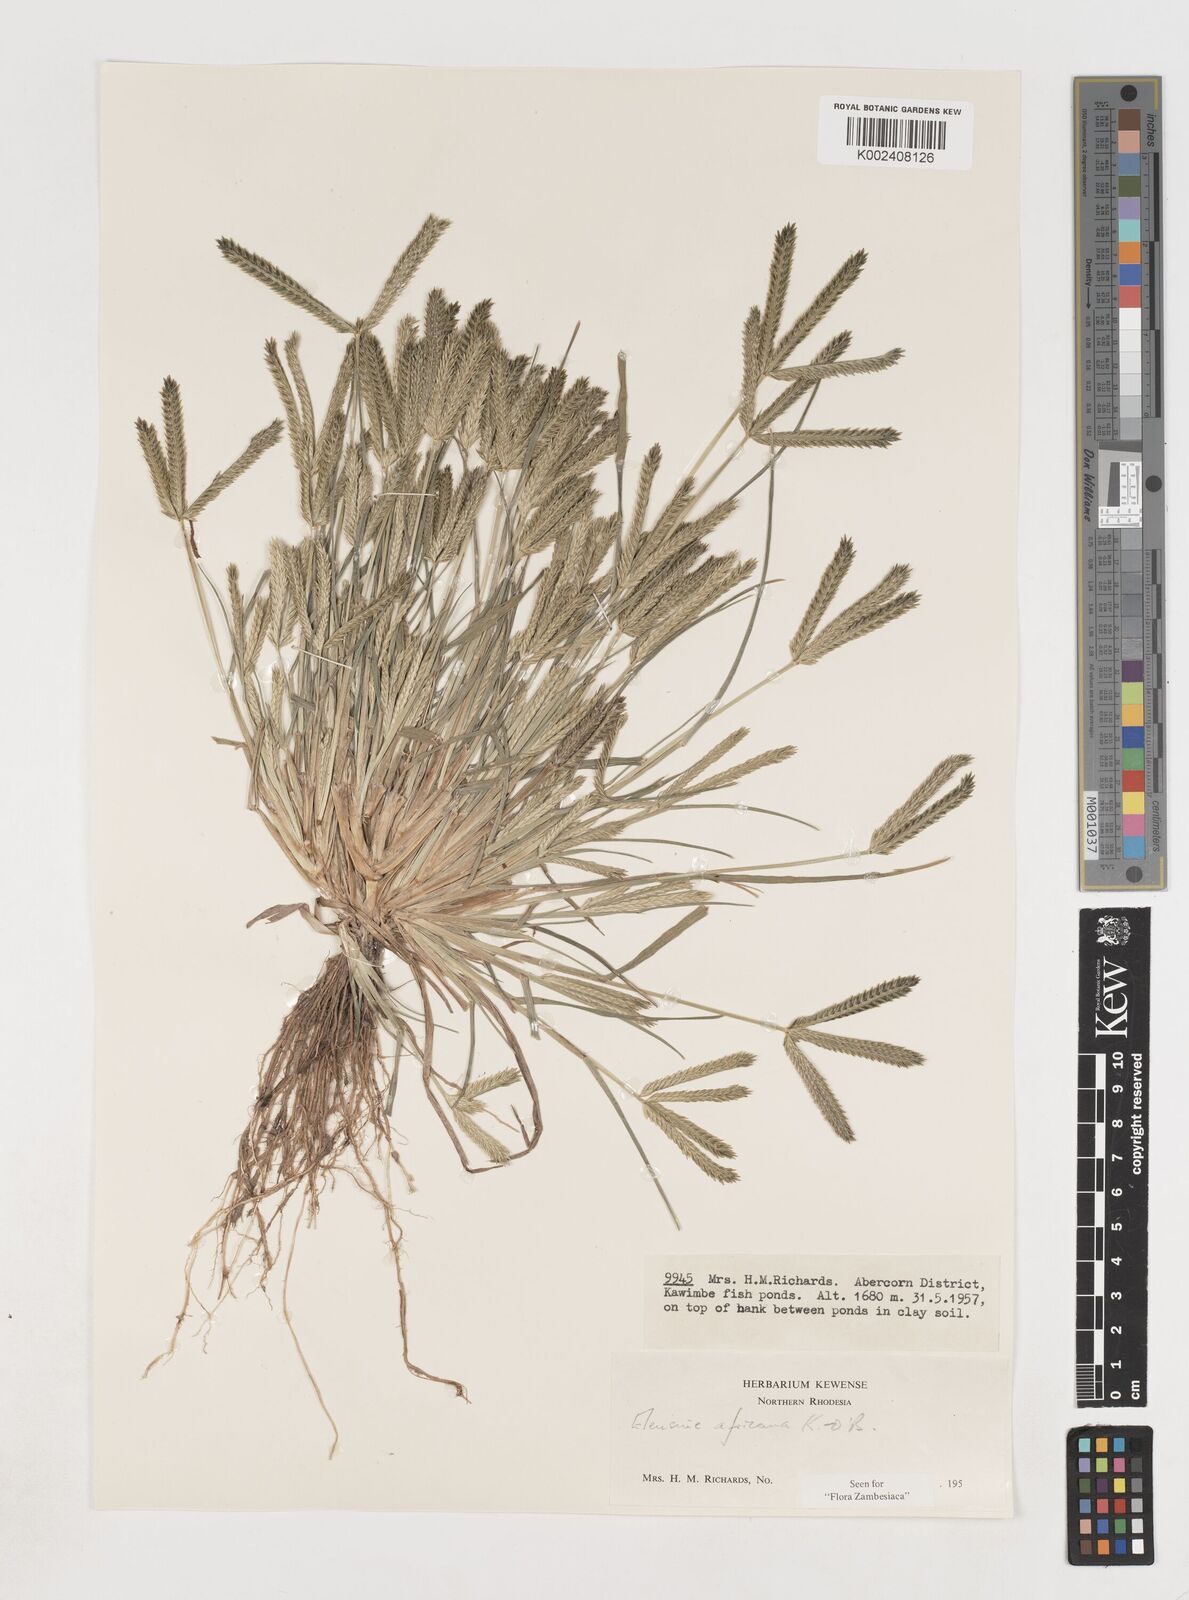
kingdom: Plantae
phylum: Tracheophyta
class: Liliopsida
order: Poales
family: Poaceae
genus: Eleusine
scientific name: Eleusine africana
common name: Wild african finger millet
